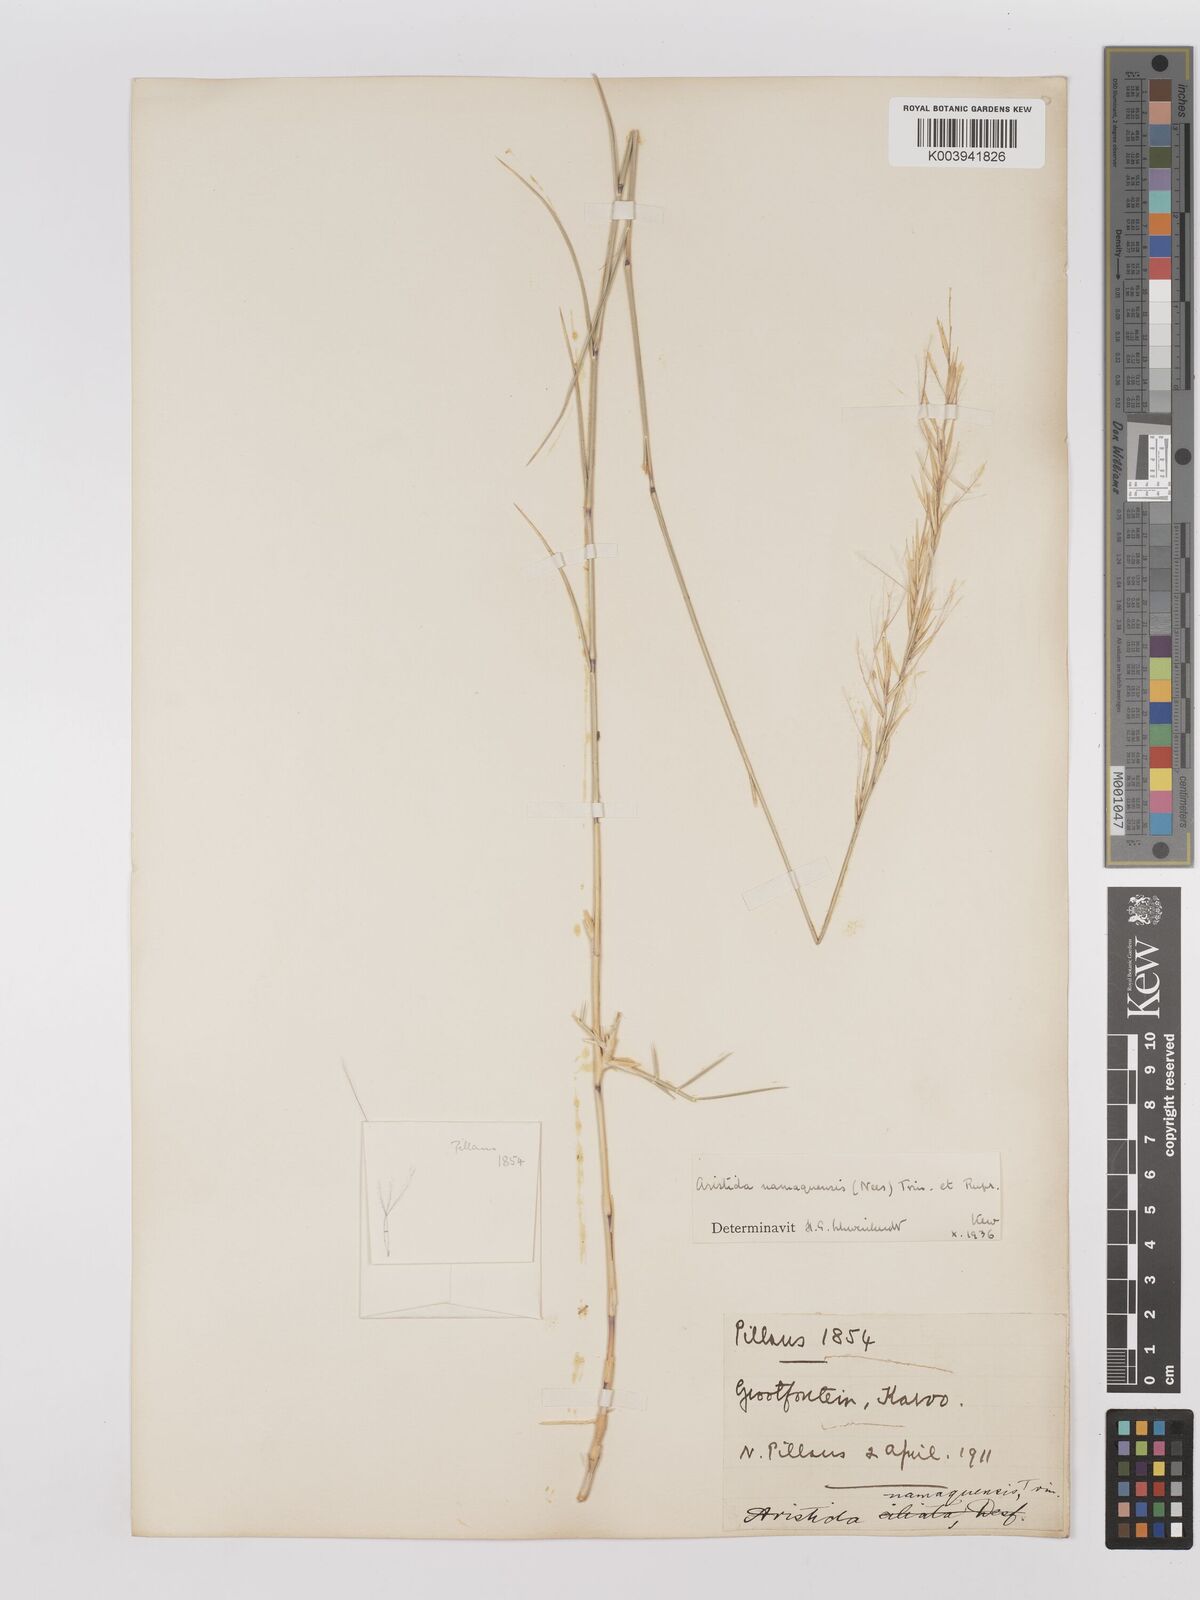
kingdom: Plantae
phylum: Tracheophyta
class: Liliopsida
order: Poales
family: Poaceae
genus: Stipagrostis
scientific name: Stipagrostis namaquensis
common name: River bushman grass
